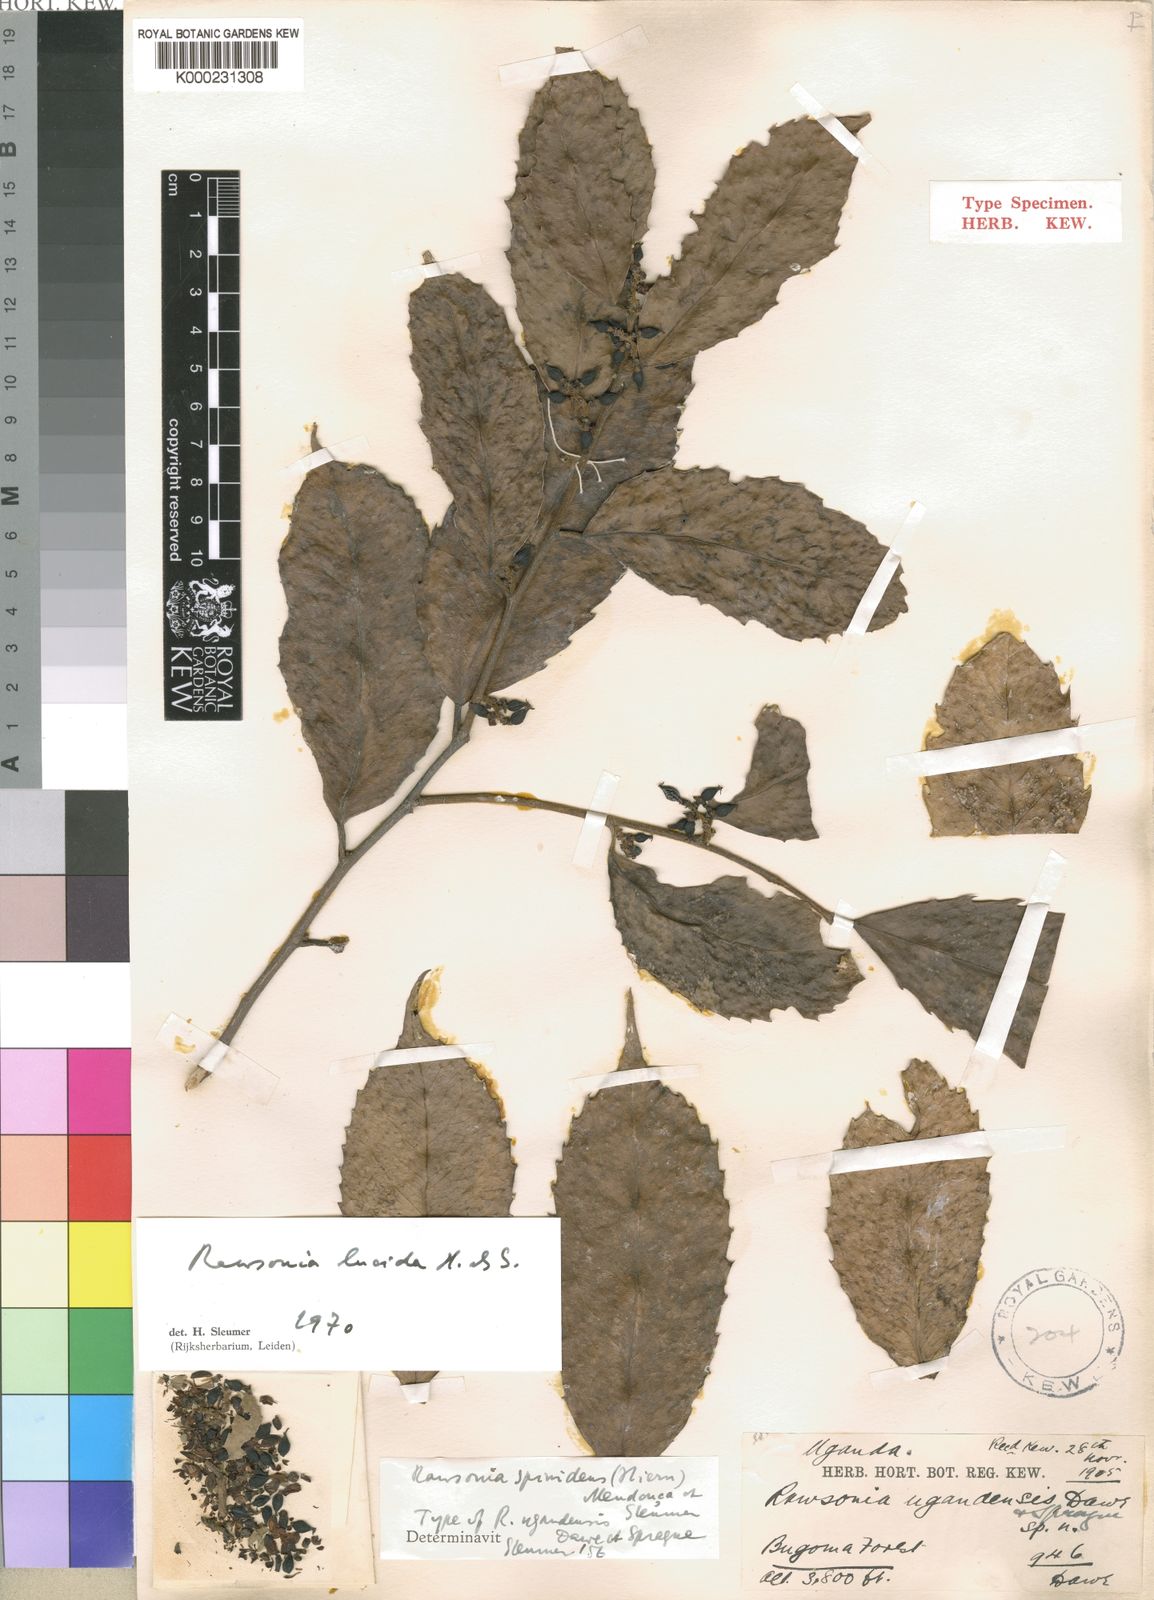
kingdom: Plantae
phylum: Tracheophyta
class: Magnoliopsida
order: Malpighiales
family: Achariaceae
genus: Rawsonia
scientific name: Rawsonia lucida
